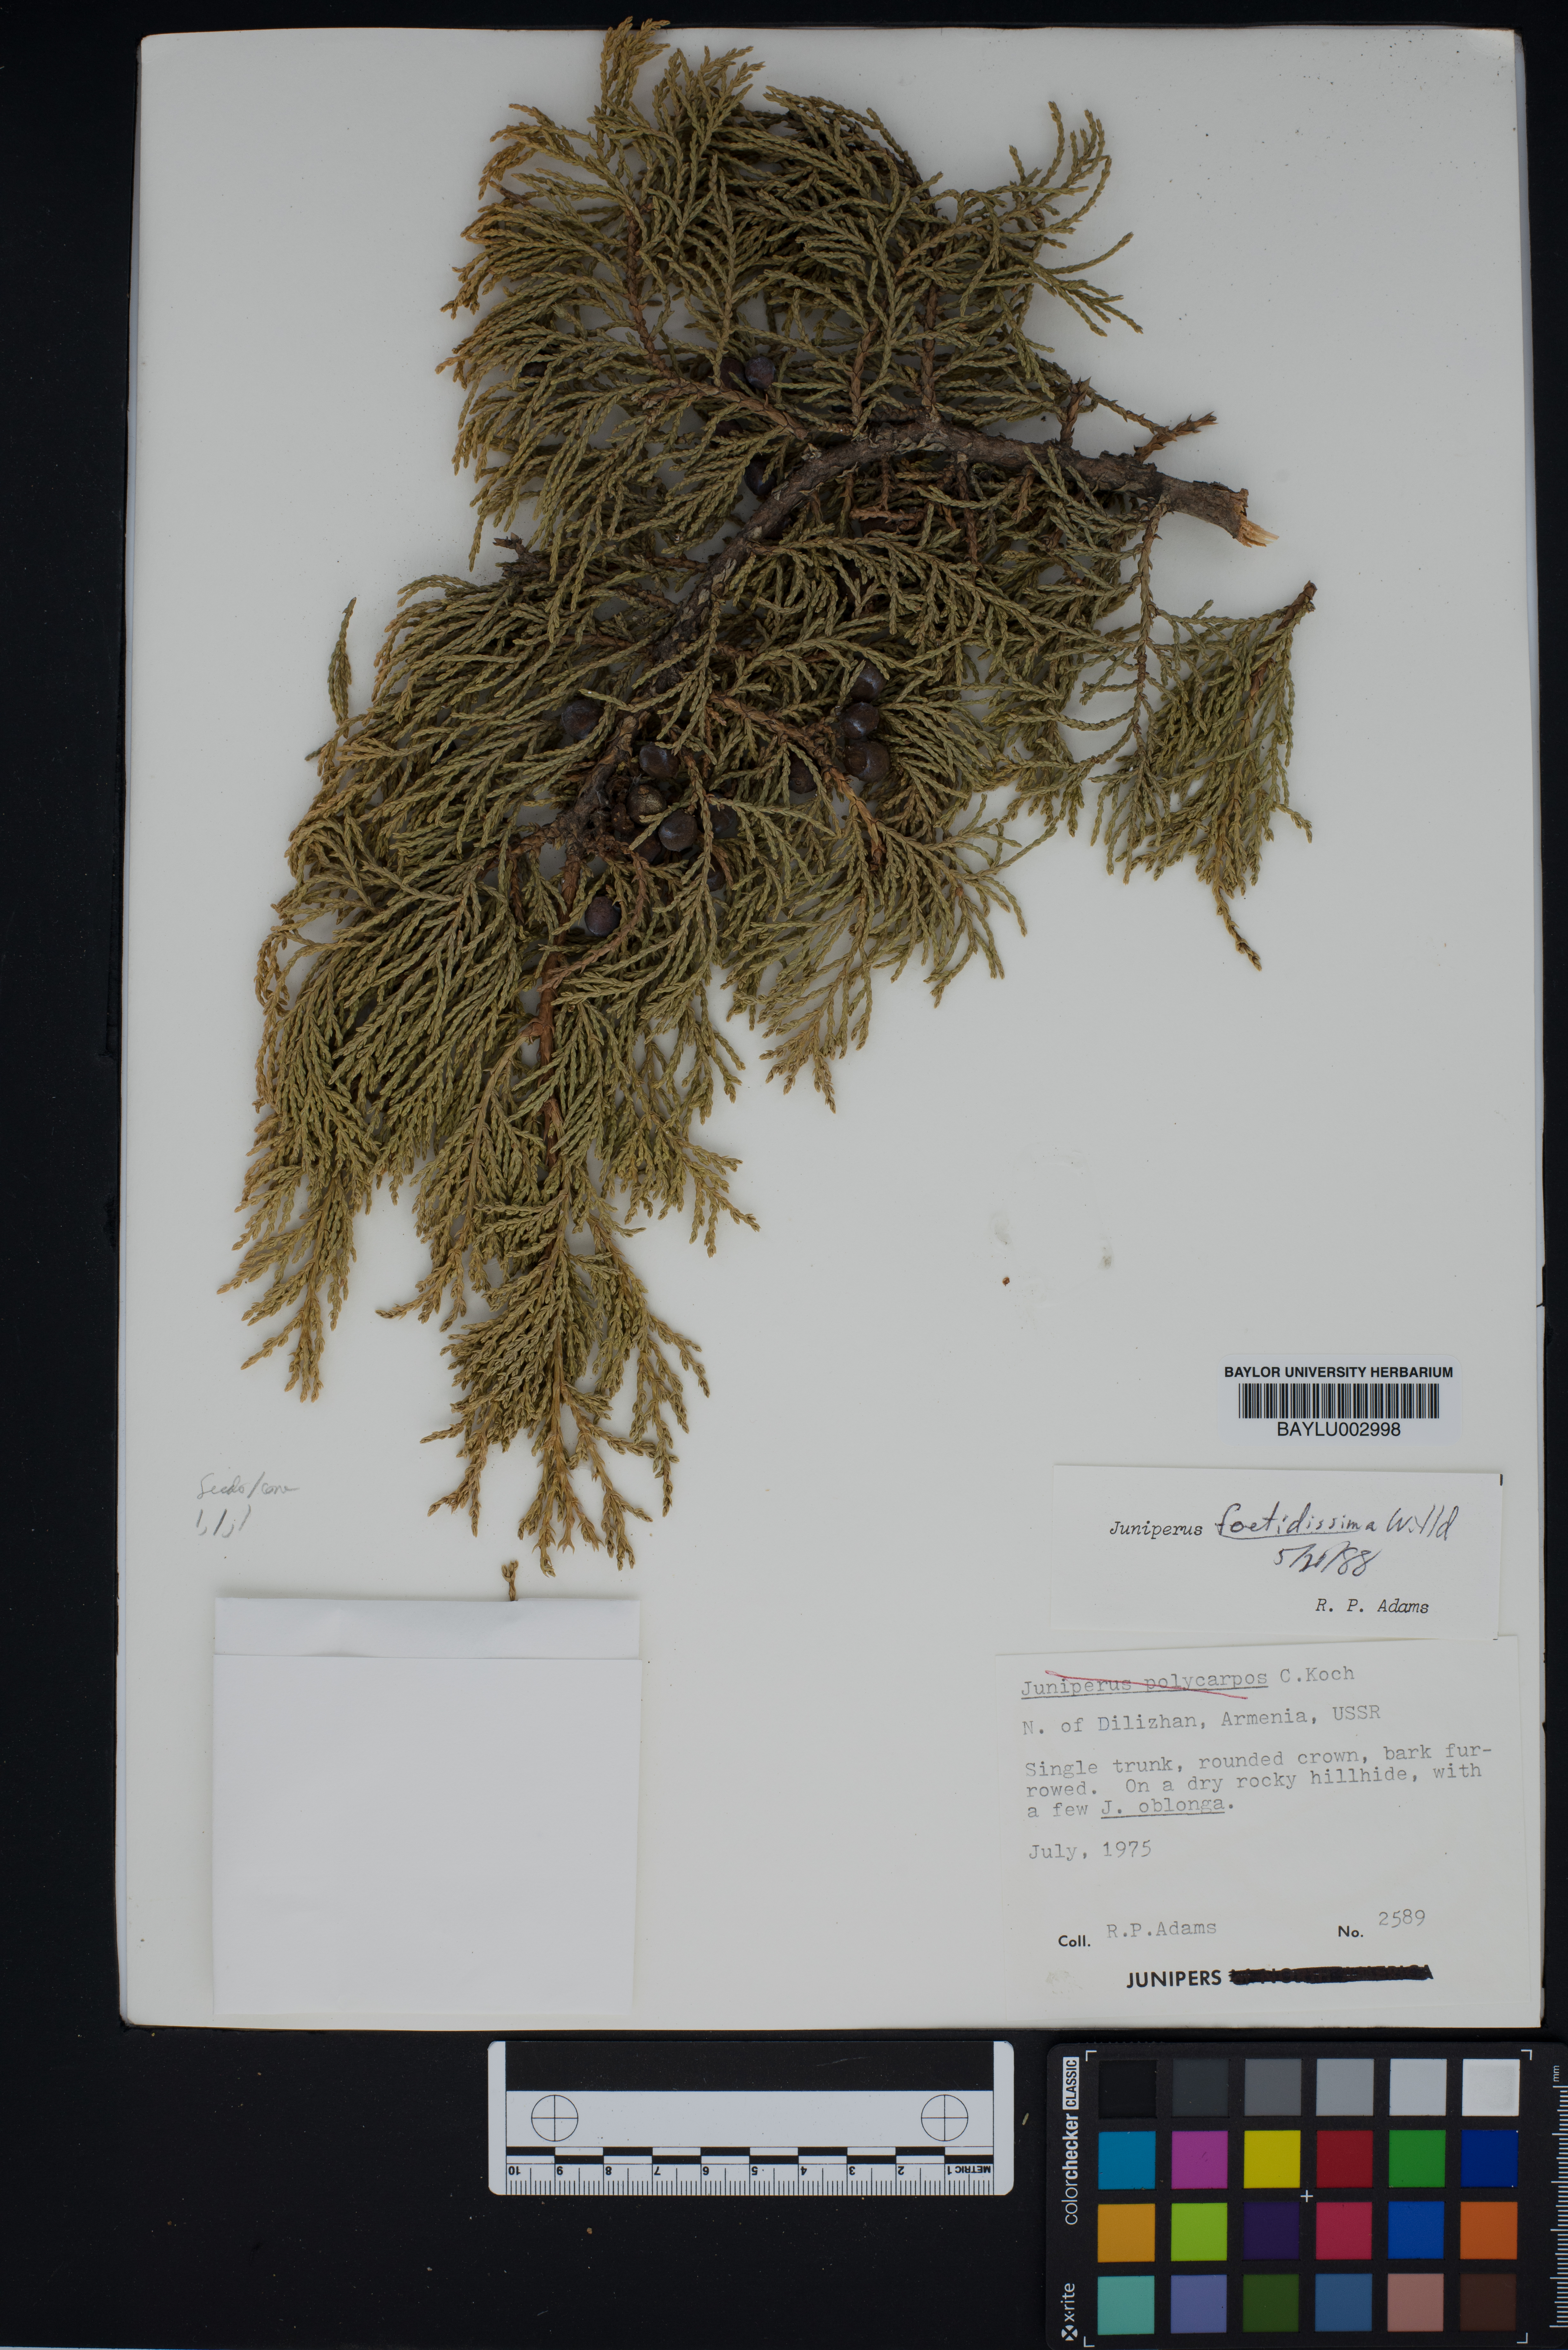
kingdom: Plantae
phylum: Tracheophyta
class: Pinopsida
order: Pinales
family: Cupressaceae
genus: Juniperus
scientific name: Juniperus foetidissima
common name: Stinking juniper
